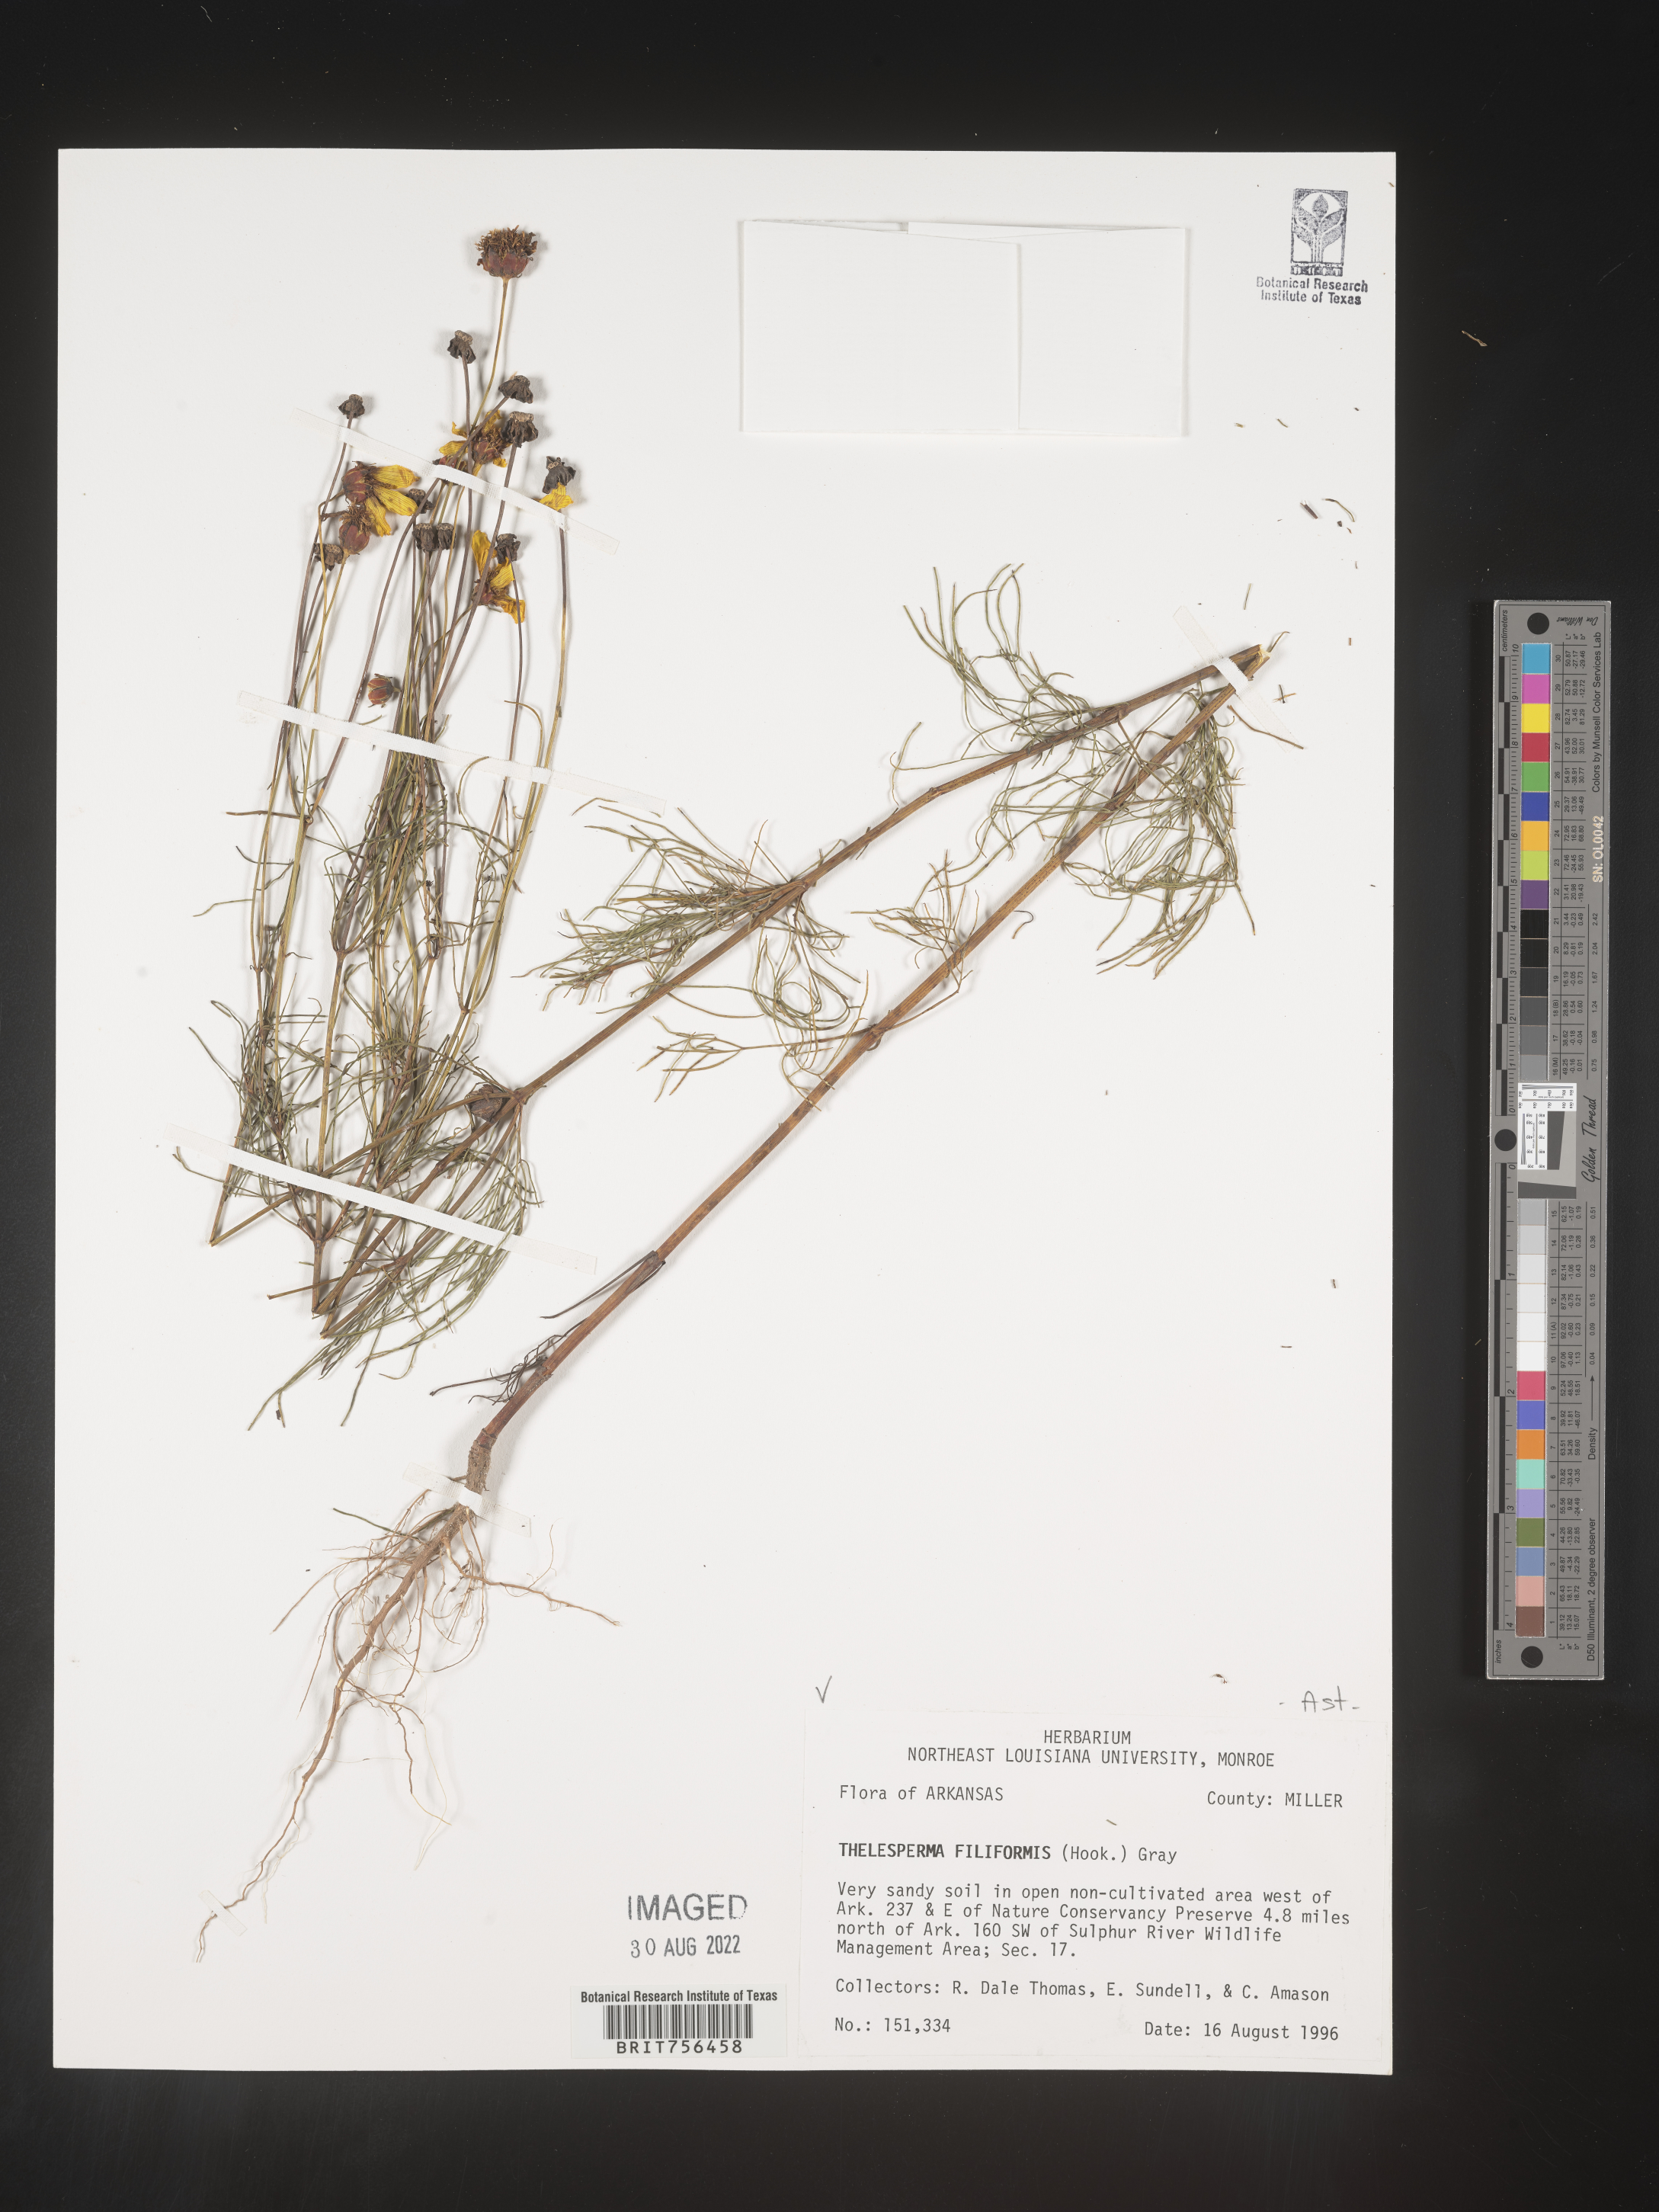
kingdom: Plantae
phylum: Tracheophyta
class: Magnoliopsida
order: Asterales
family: Asteraceae
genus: Thelesperma
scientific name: Thelesperma filifolium
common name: Stiff greenthread
